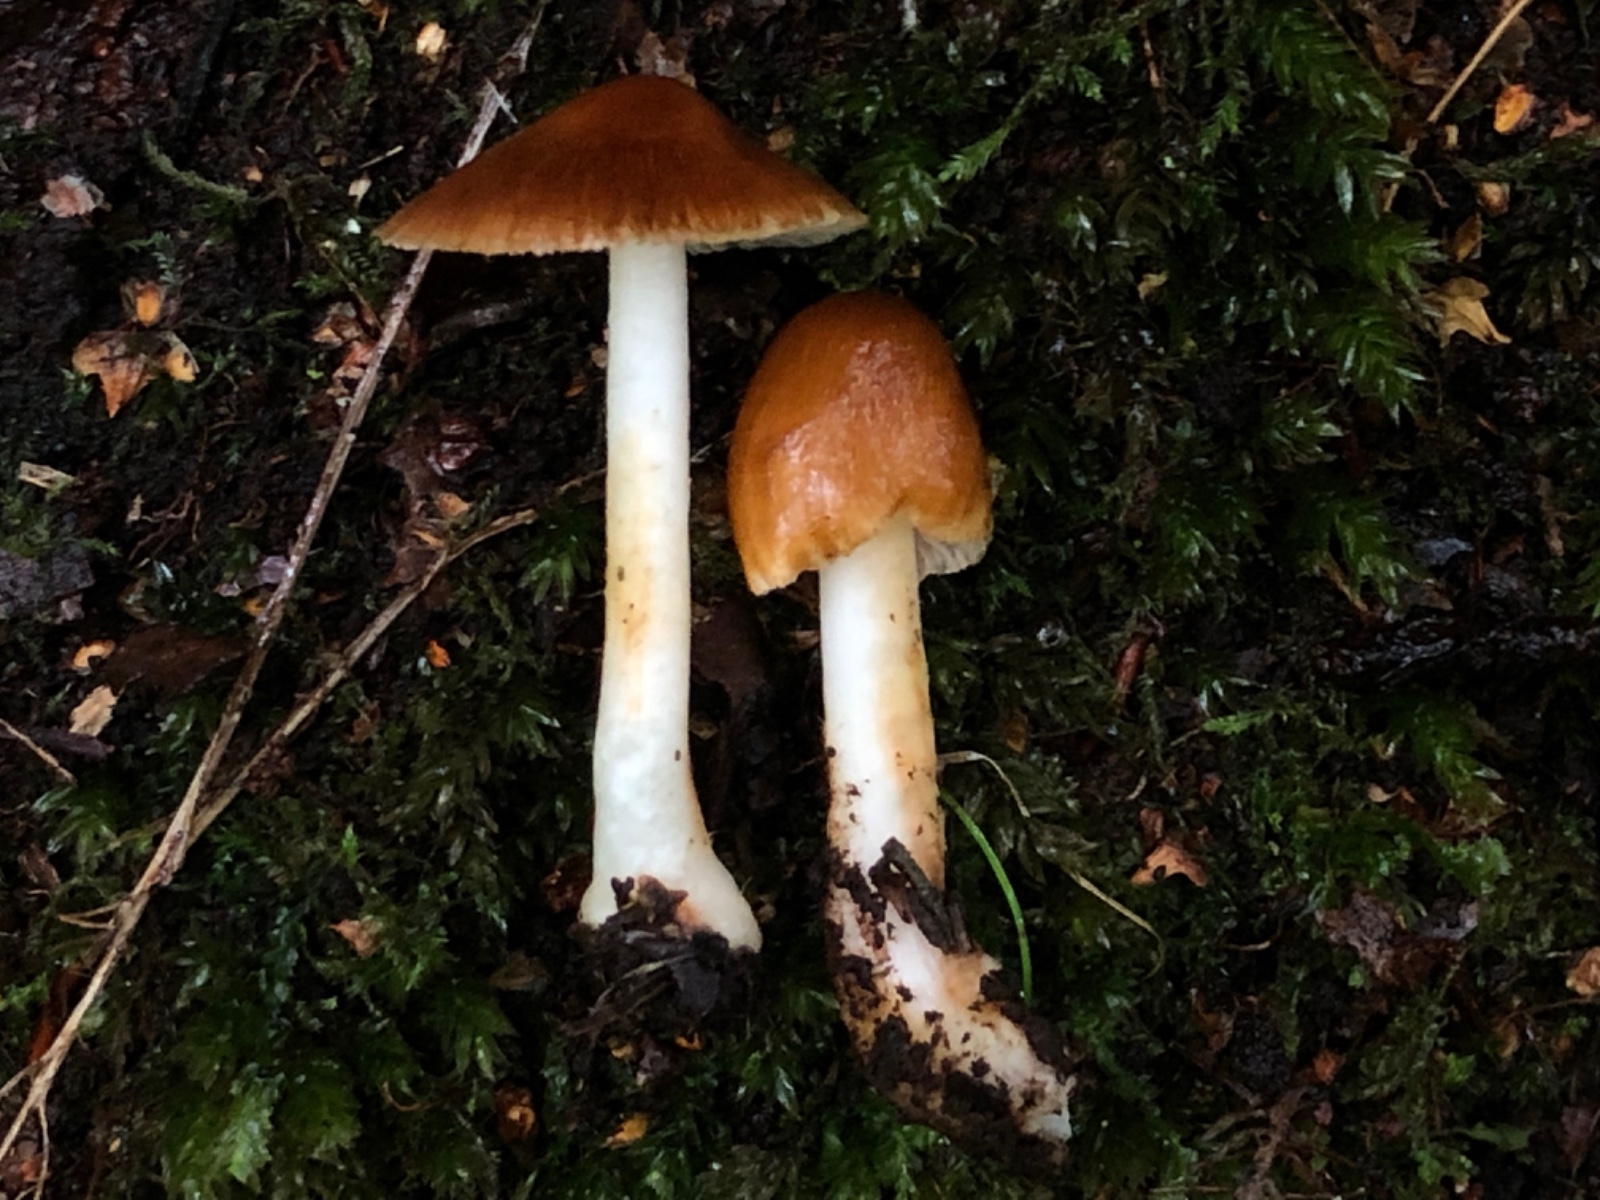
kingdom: Fungi
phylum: Basidiomycota
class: Agaricomycetes
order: Agaricales
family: Inocybaceae
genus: Inocybe
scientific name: Inocybe mixtilis
